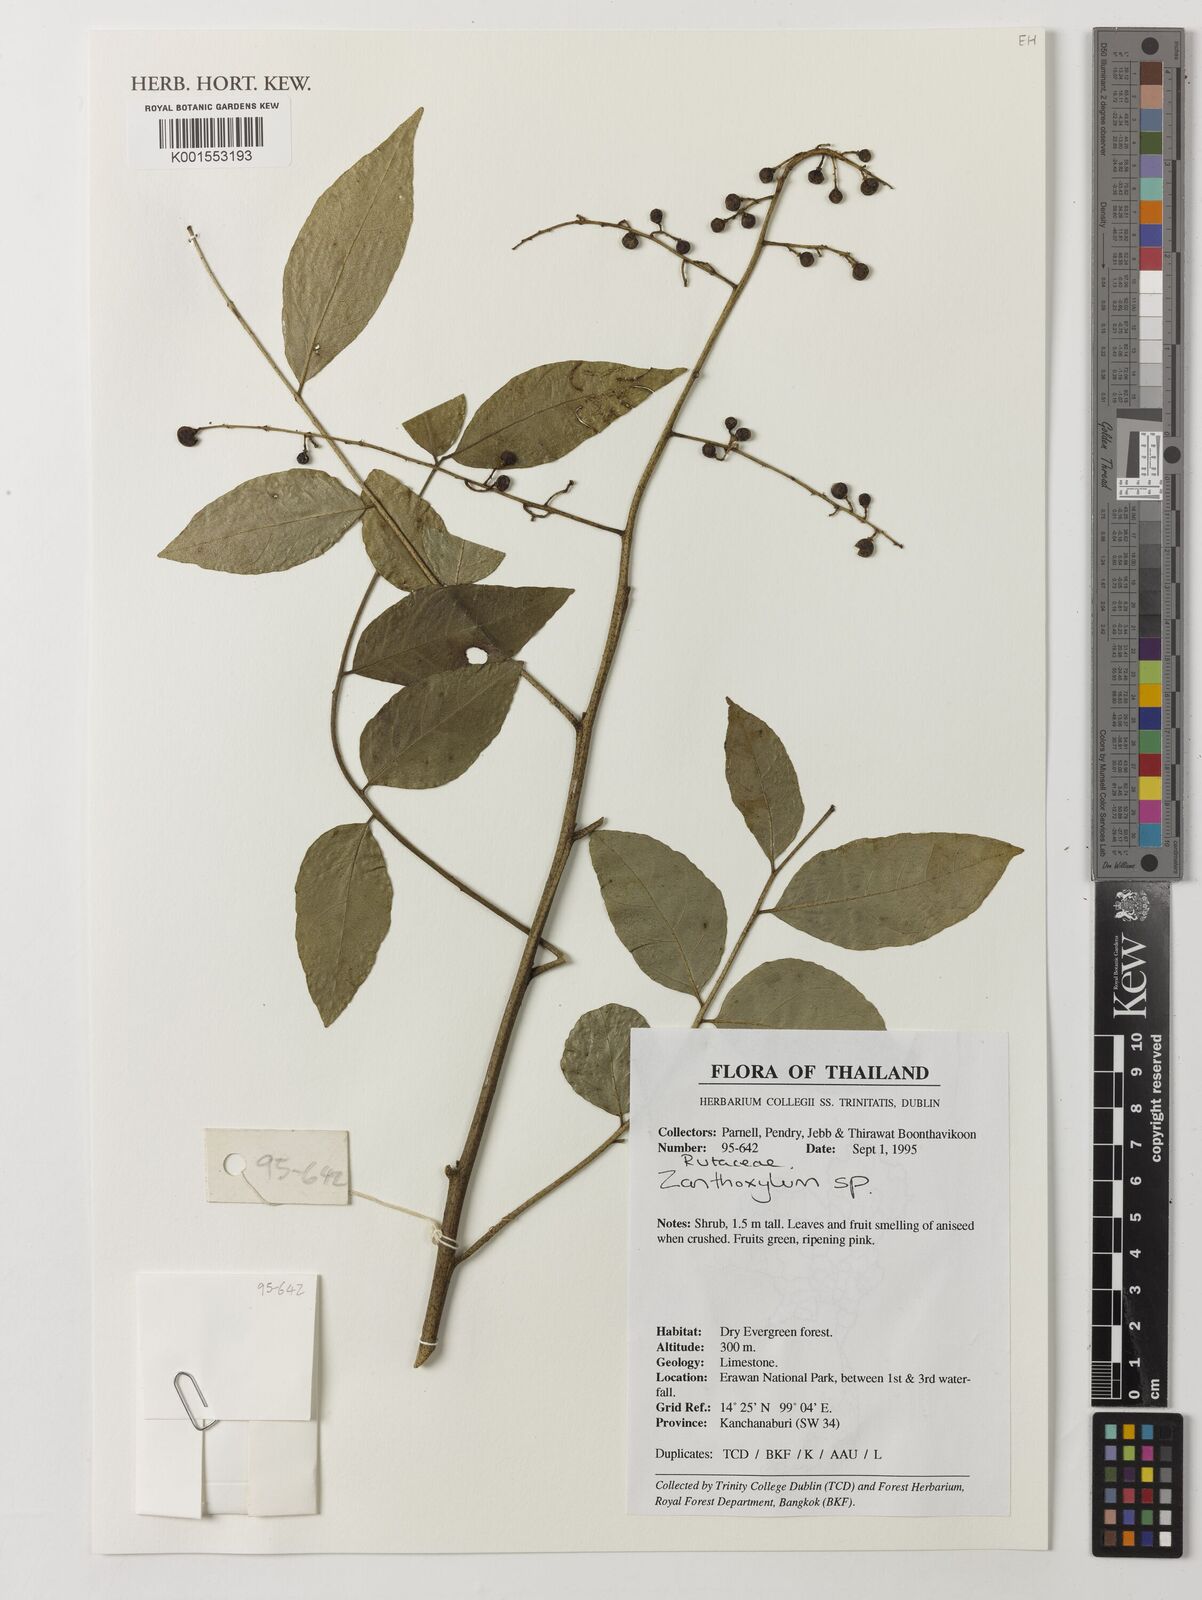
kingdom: Plantae
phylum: Tracheophyta
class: Magnoliopsida
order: Sapindales
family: Rutaceae
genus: Zanthoxylum
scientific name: Zanthoxylum
